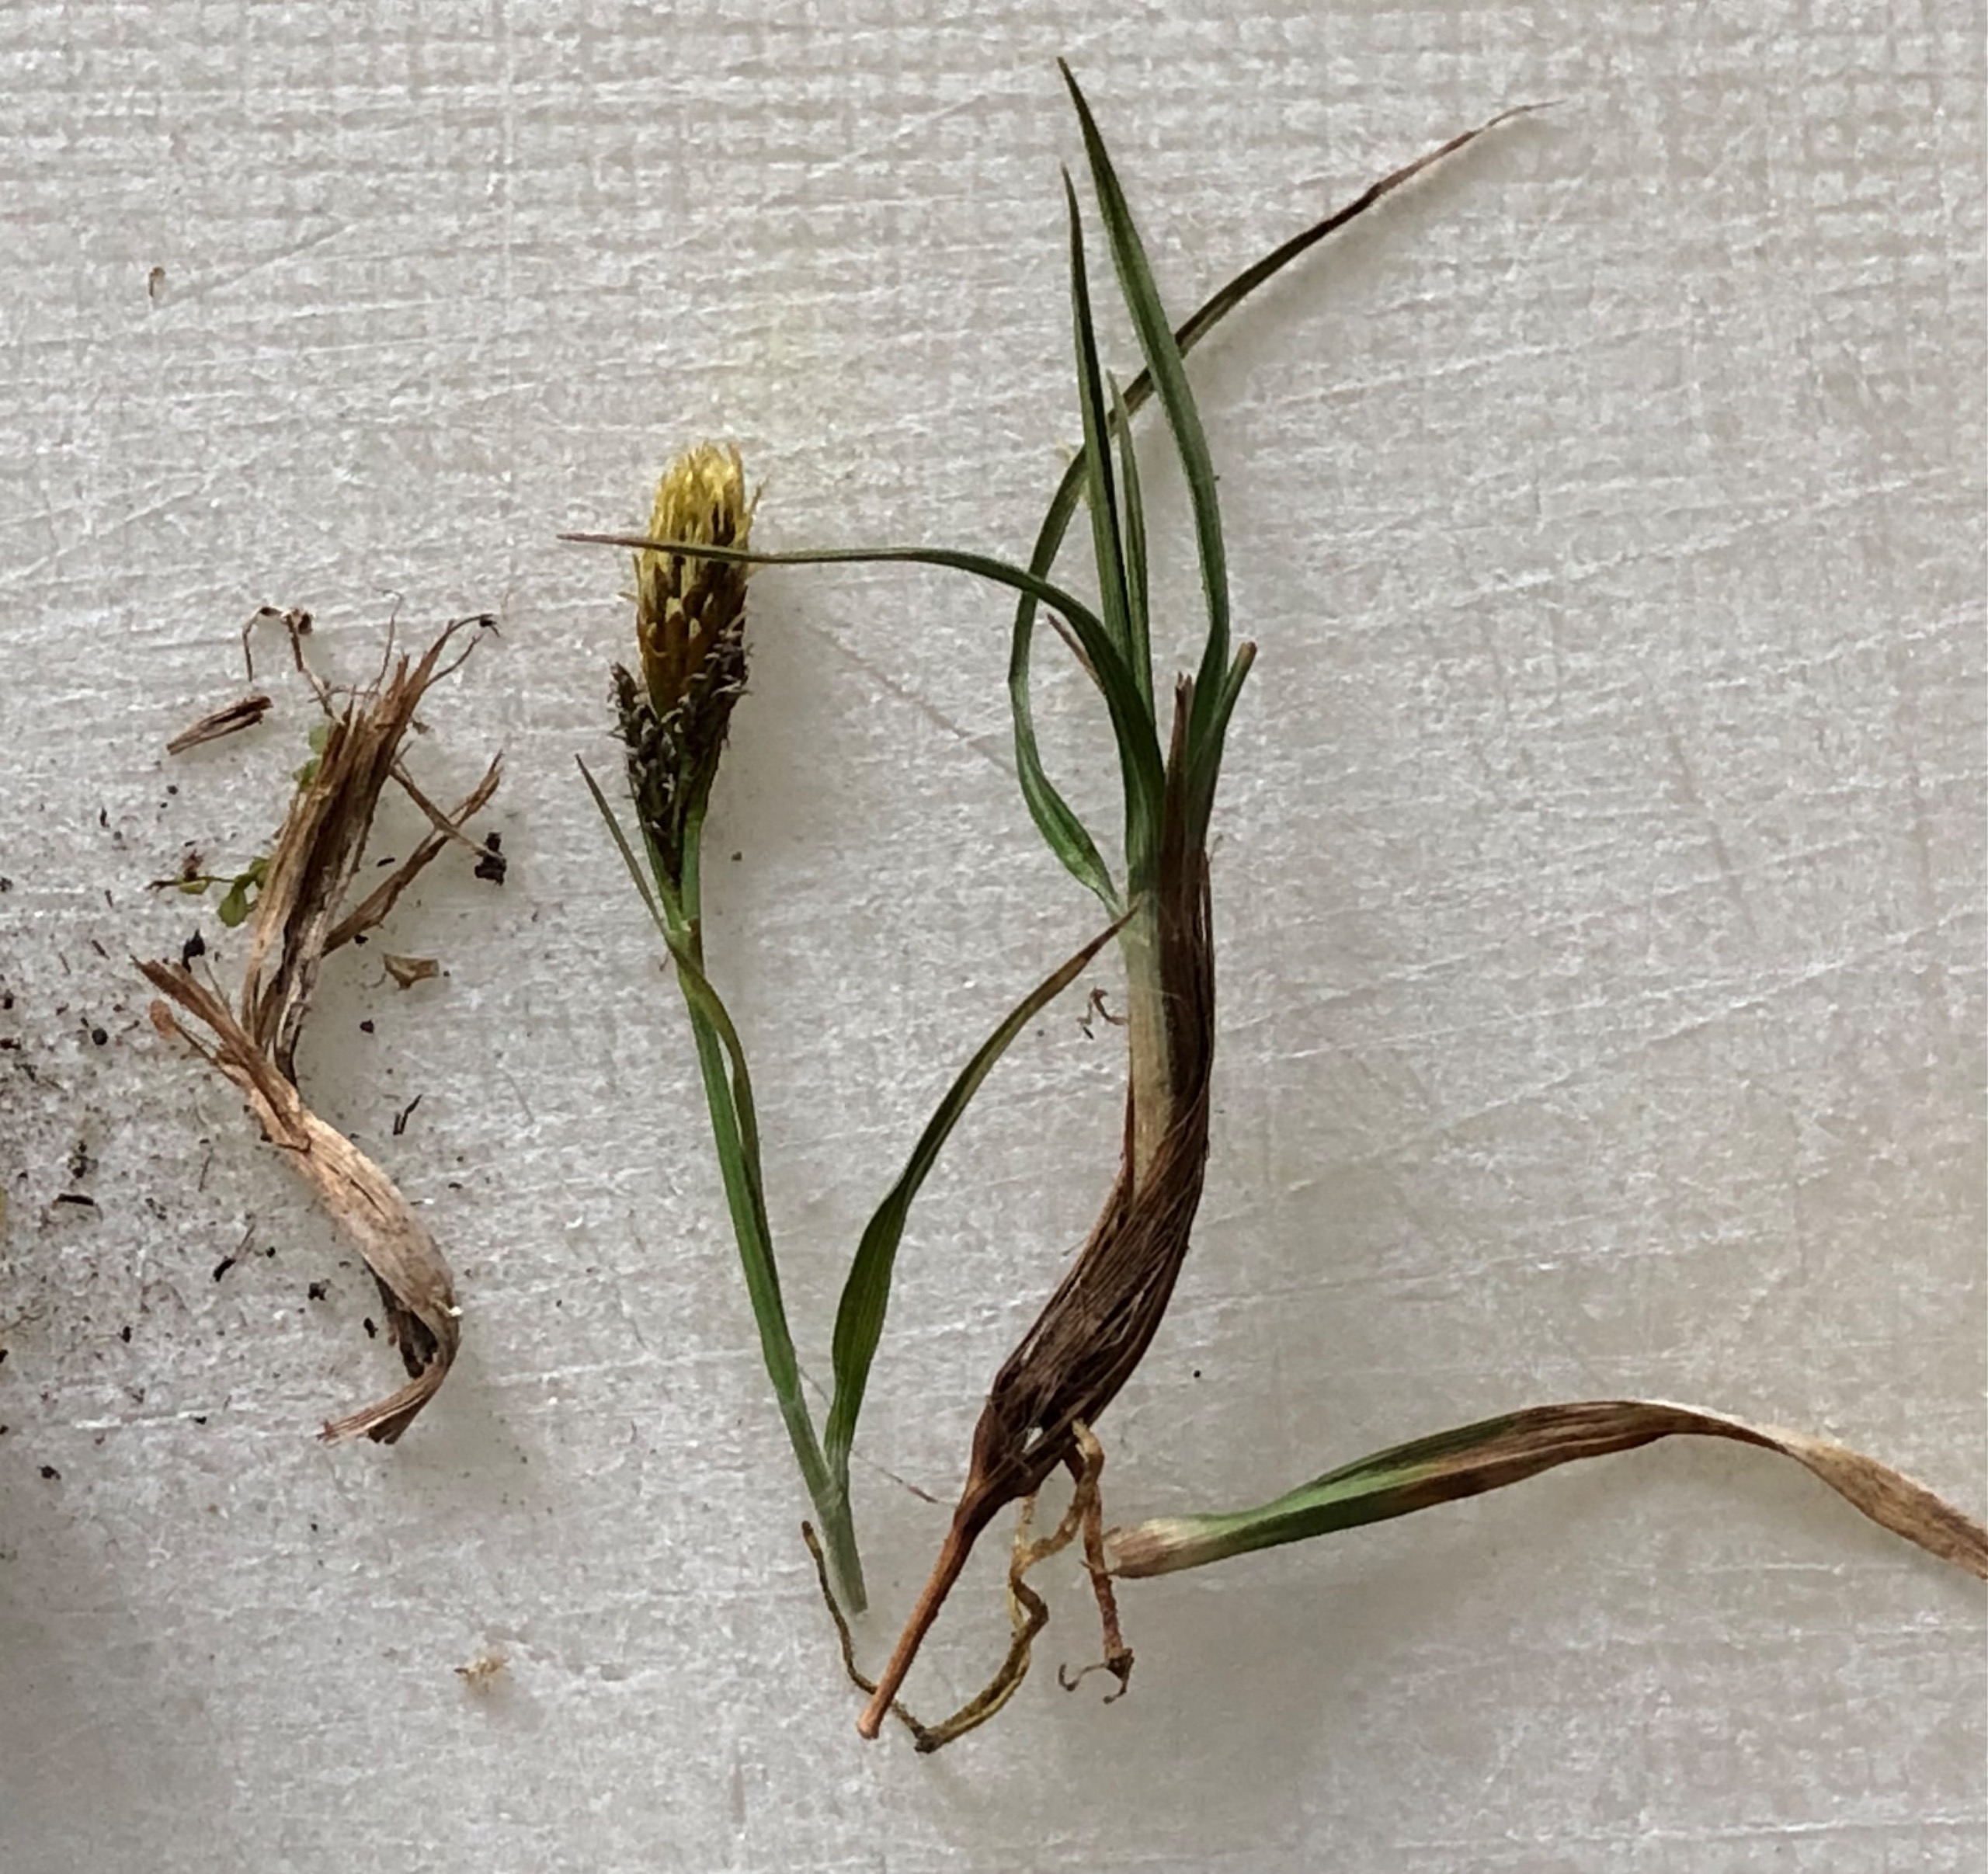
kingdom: Plantae
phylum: Tracheophyta
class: Liliopsida
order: Poales
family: Cyperaceae
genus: Carex
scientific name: Carex caryophyllea
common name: Vår-star
